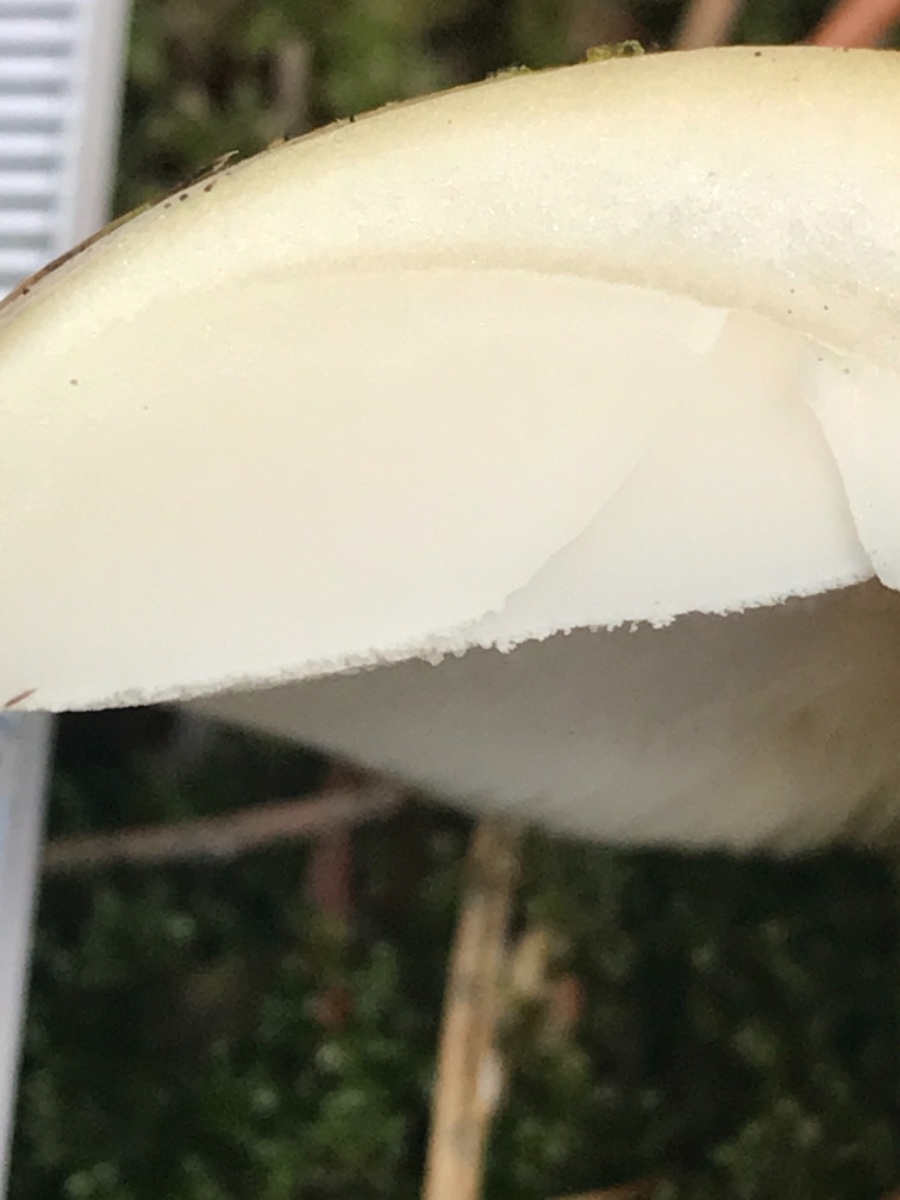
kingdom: Fungi
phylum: Basidiomycota
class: Agaricomycetes
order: Agaricales
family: Amanitaceae
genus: Amanita
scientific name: Amanita gemmata
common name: okkergul fluesvamp
